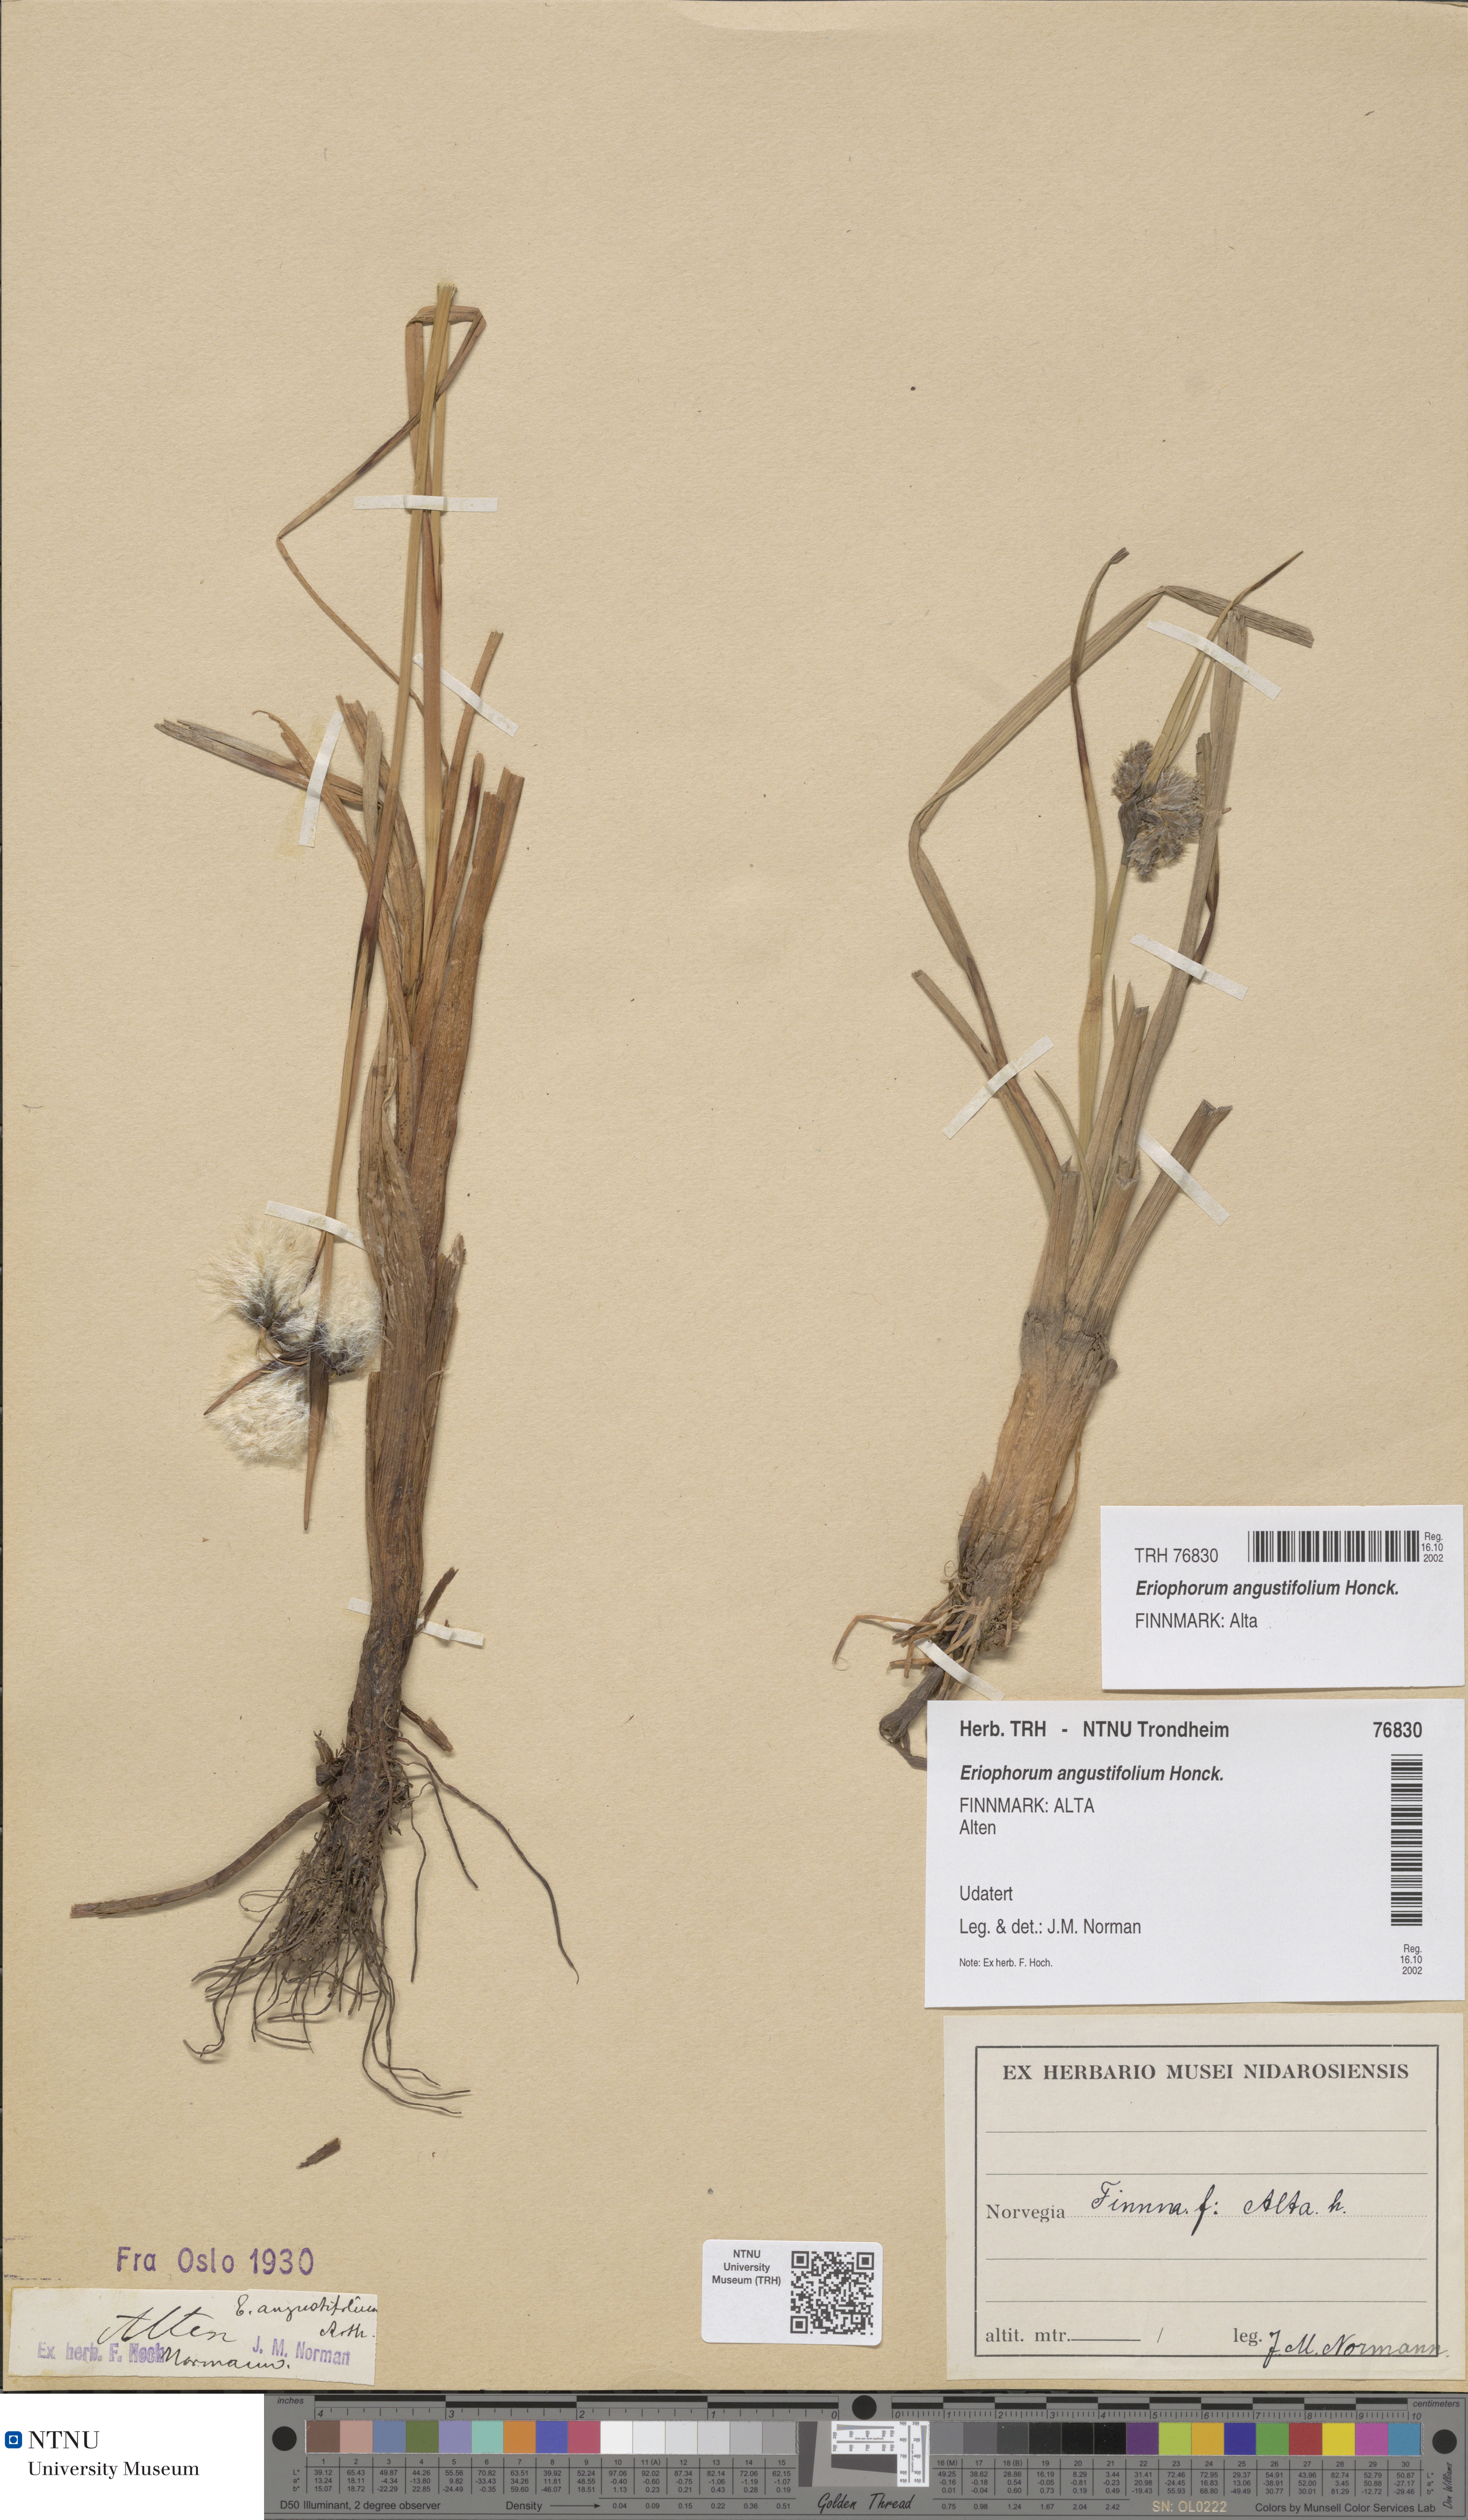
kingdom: Plantae
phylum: Tracheophyta
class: Liliopsida
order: Poales
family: Cyperaceae
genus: Eriophorum
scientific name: Eriophorum angustifolium
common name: Common cottongrass
